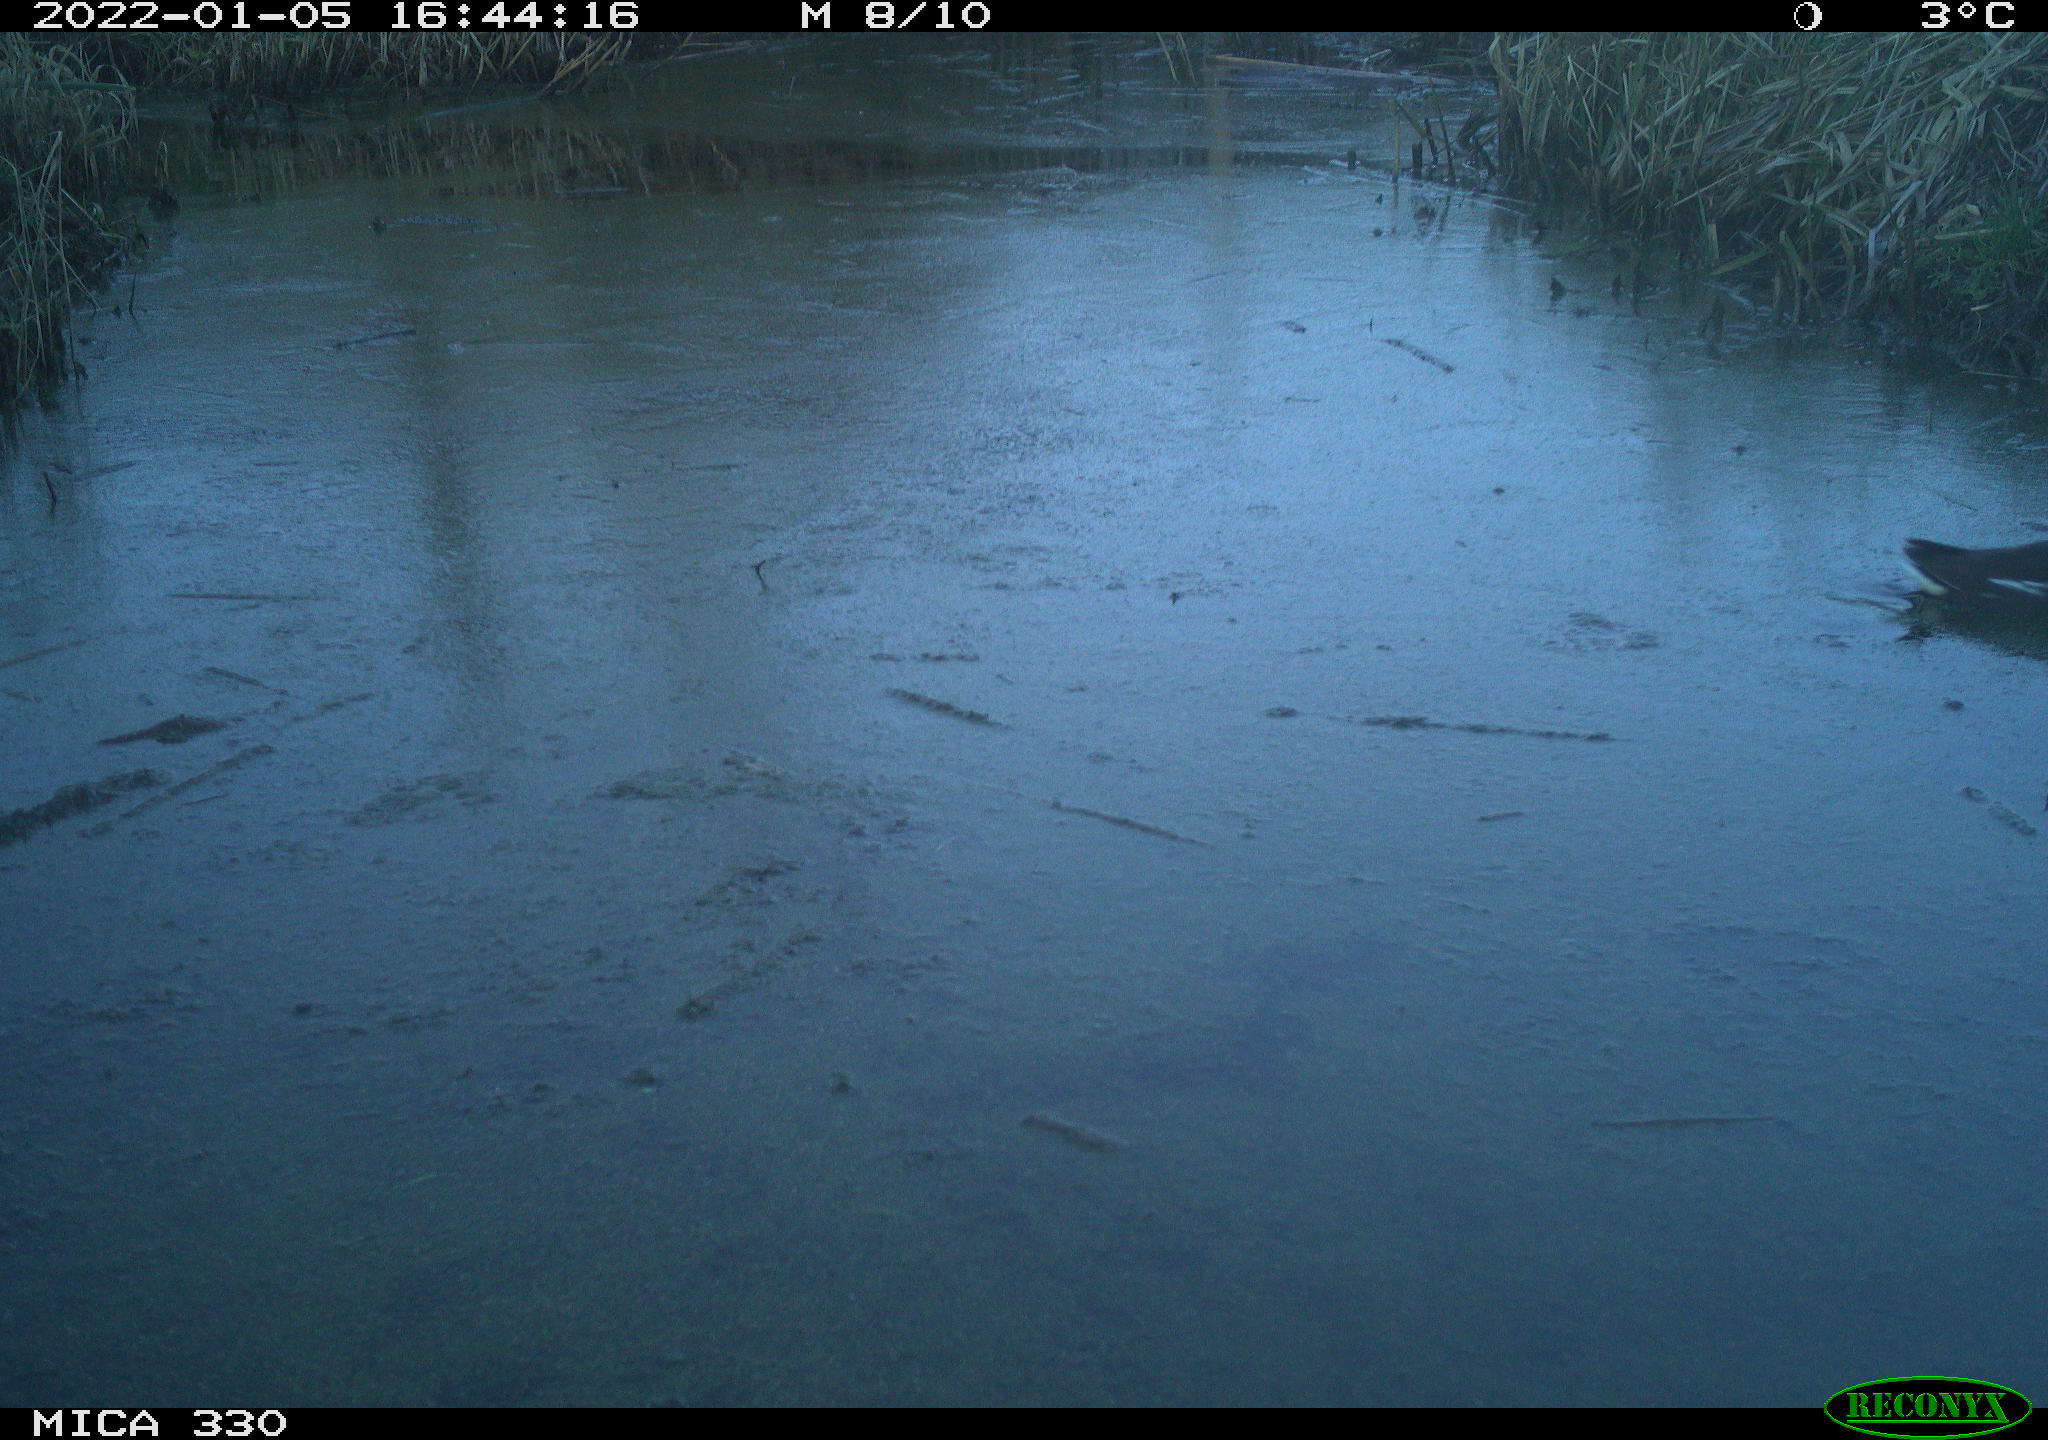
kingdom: Animalia
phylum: Chordata
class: Aves
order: Gruiformes
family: Rallidae
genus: Gallinula
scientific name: Gallinula chloropus
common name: Common moorhen
